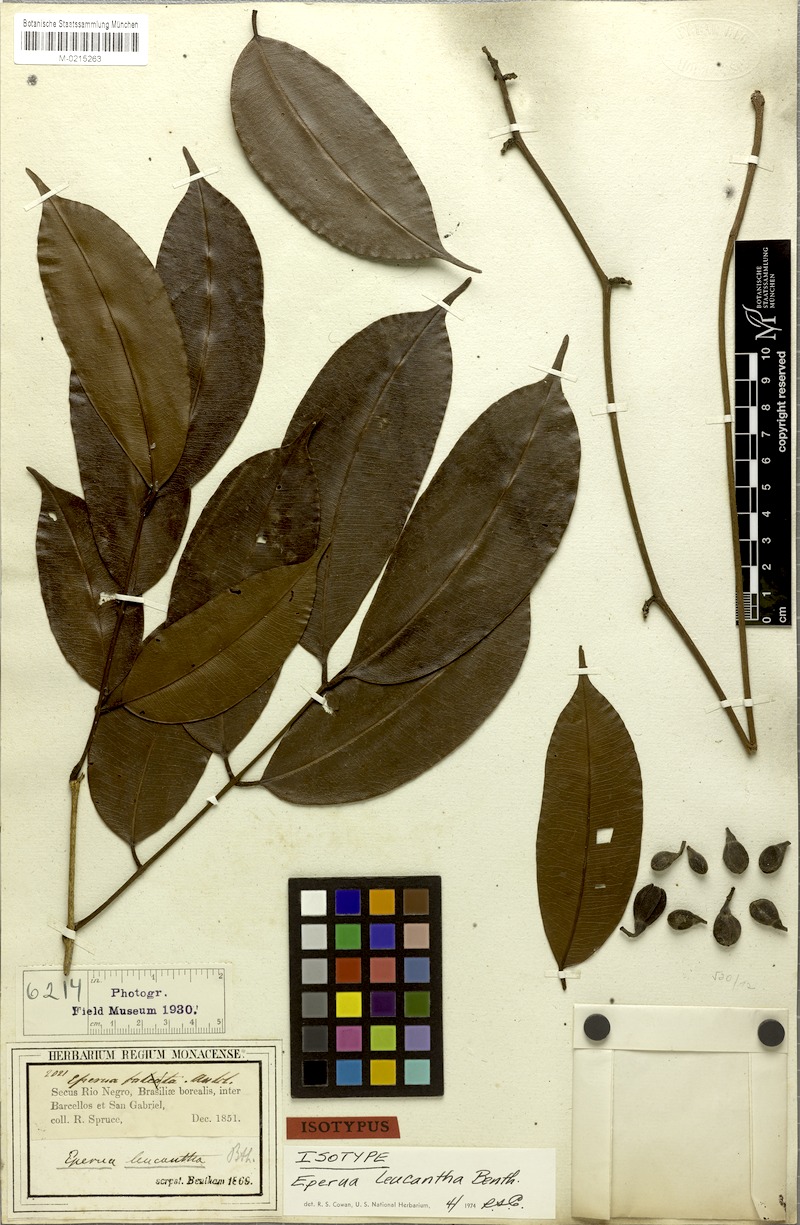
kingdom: Plantae
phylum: Tracheophyta
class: Magnoliopsida
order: Fabales
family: Fabaceae
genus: Eperua
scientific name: Eperua leucantha
